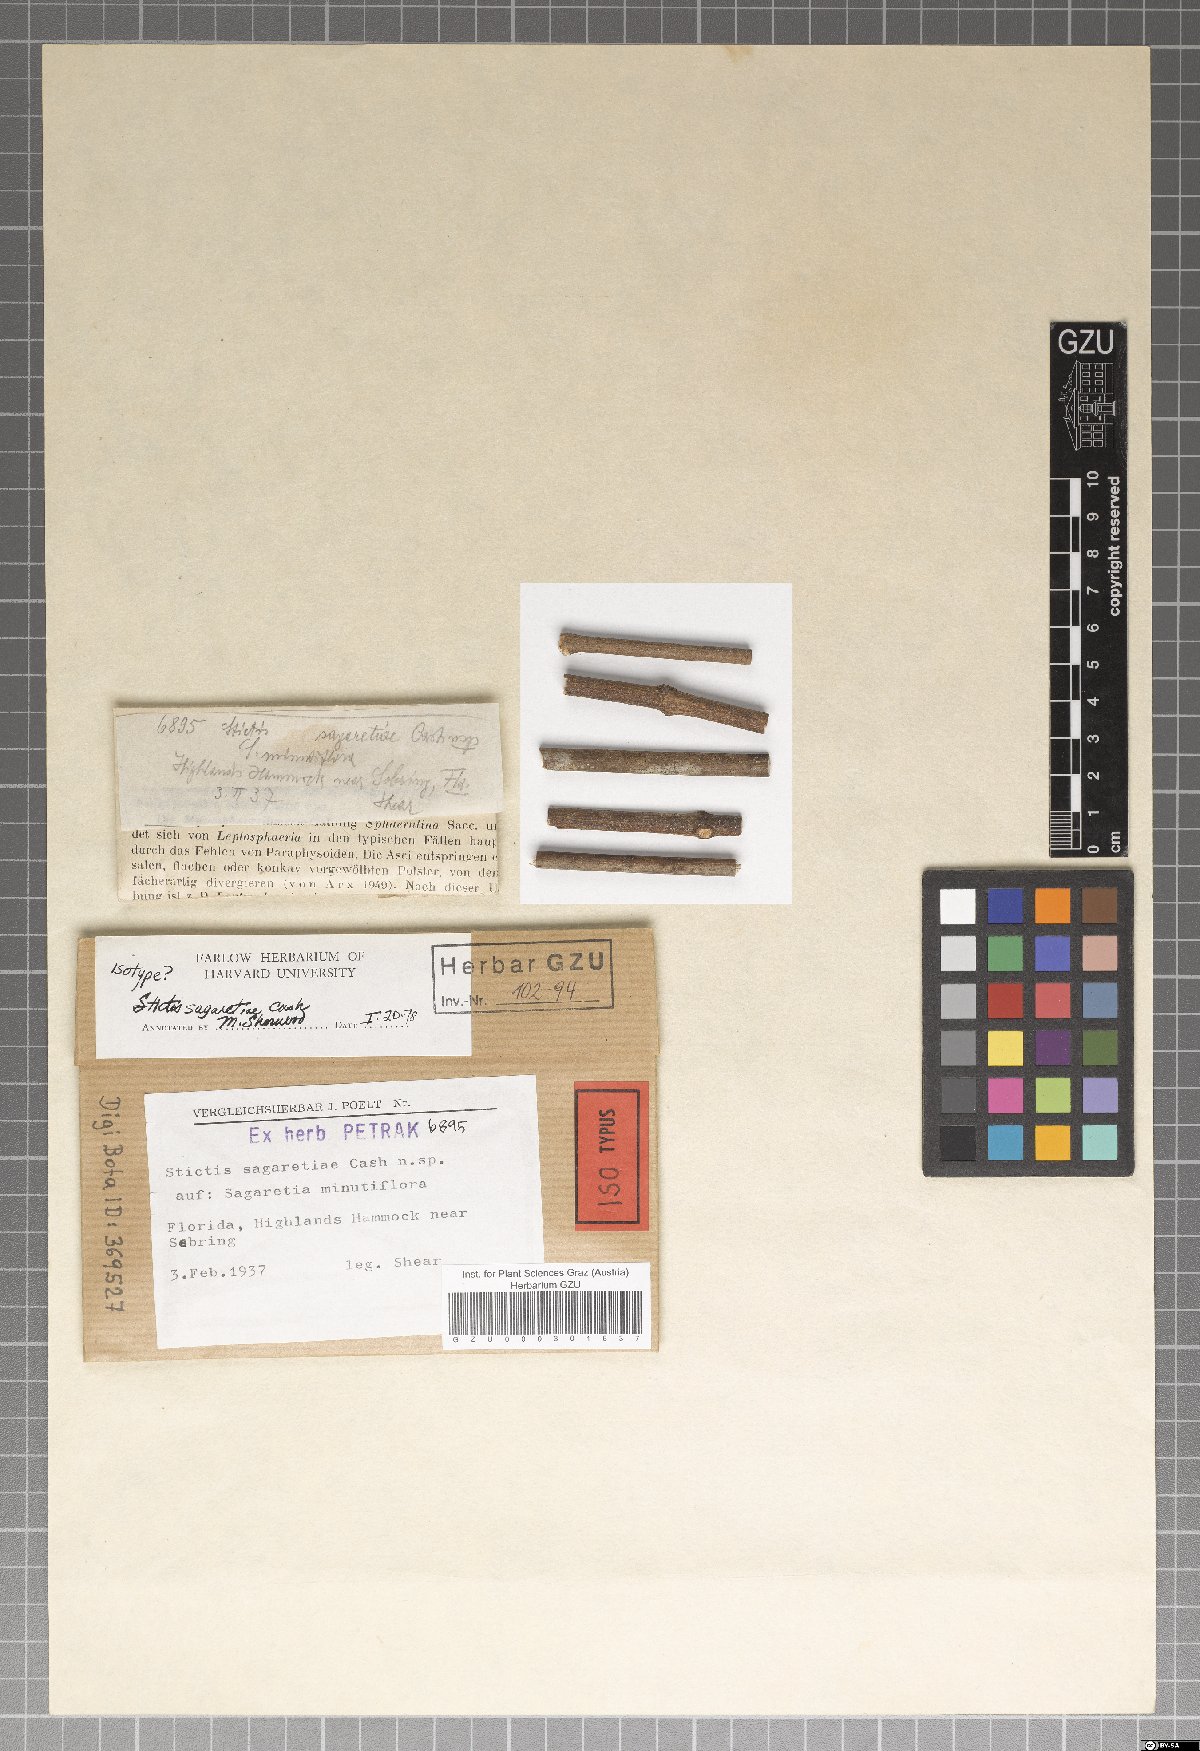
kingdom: Fungi
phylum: Ascomycota
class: Lecanoromycetes
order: Ostropales
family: Stictidaceae
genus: Stictis
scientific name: Stictis
